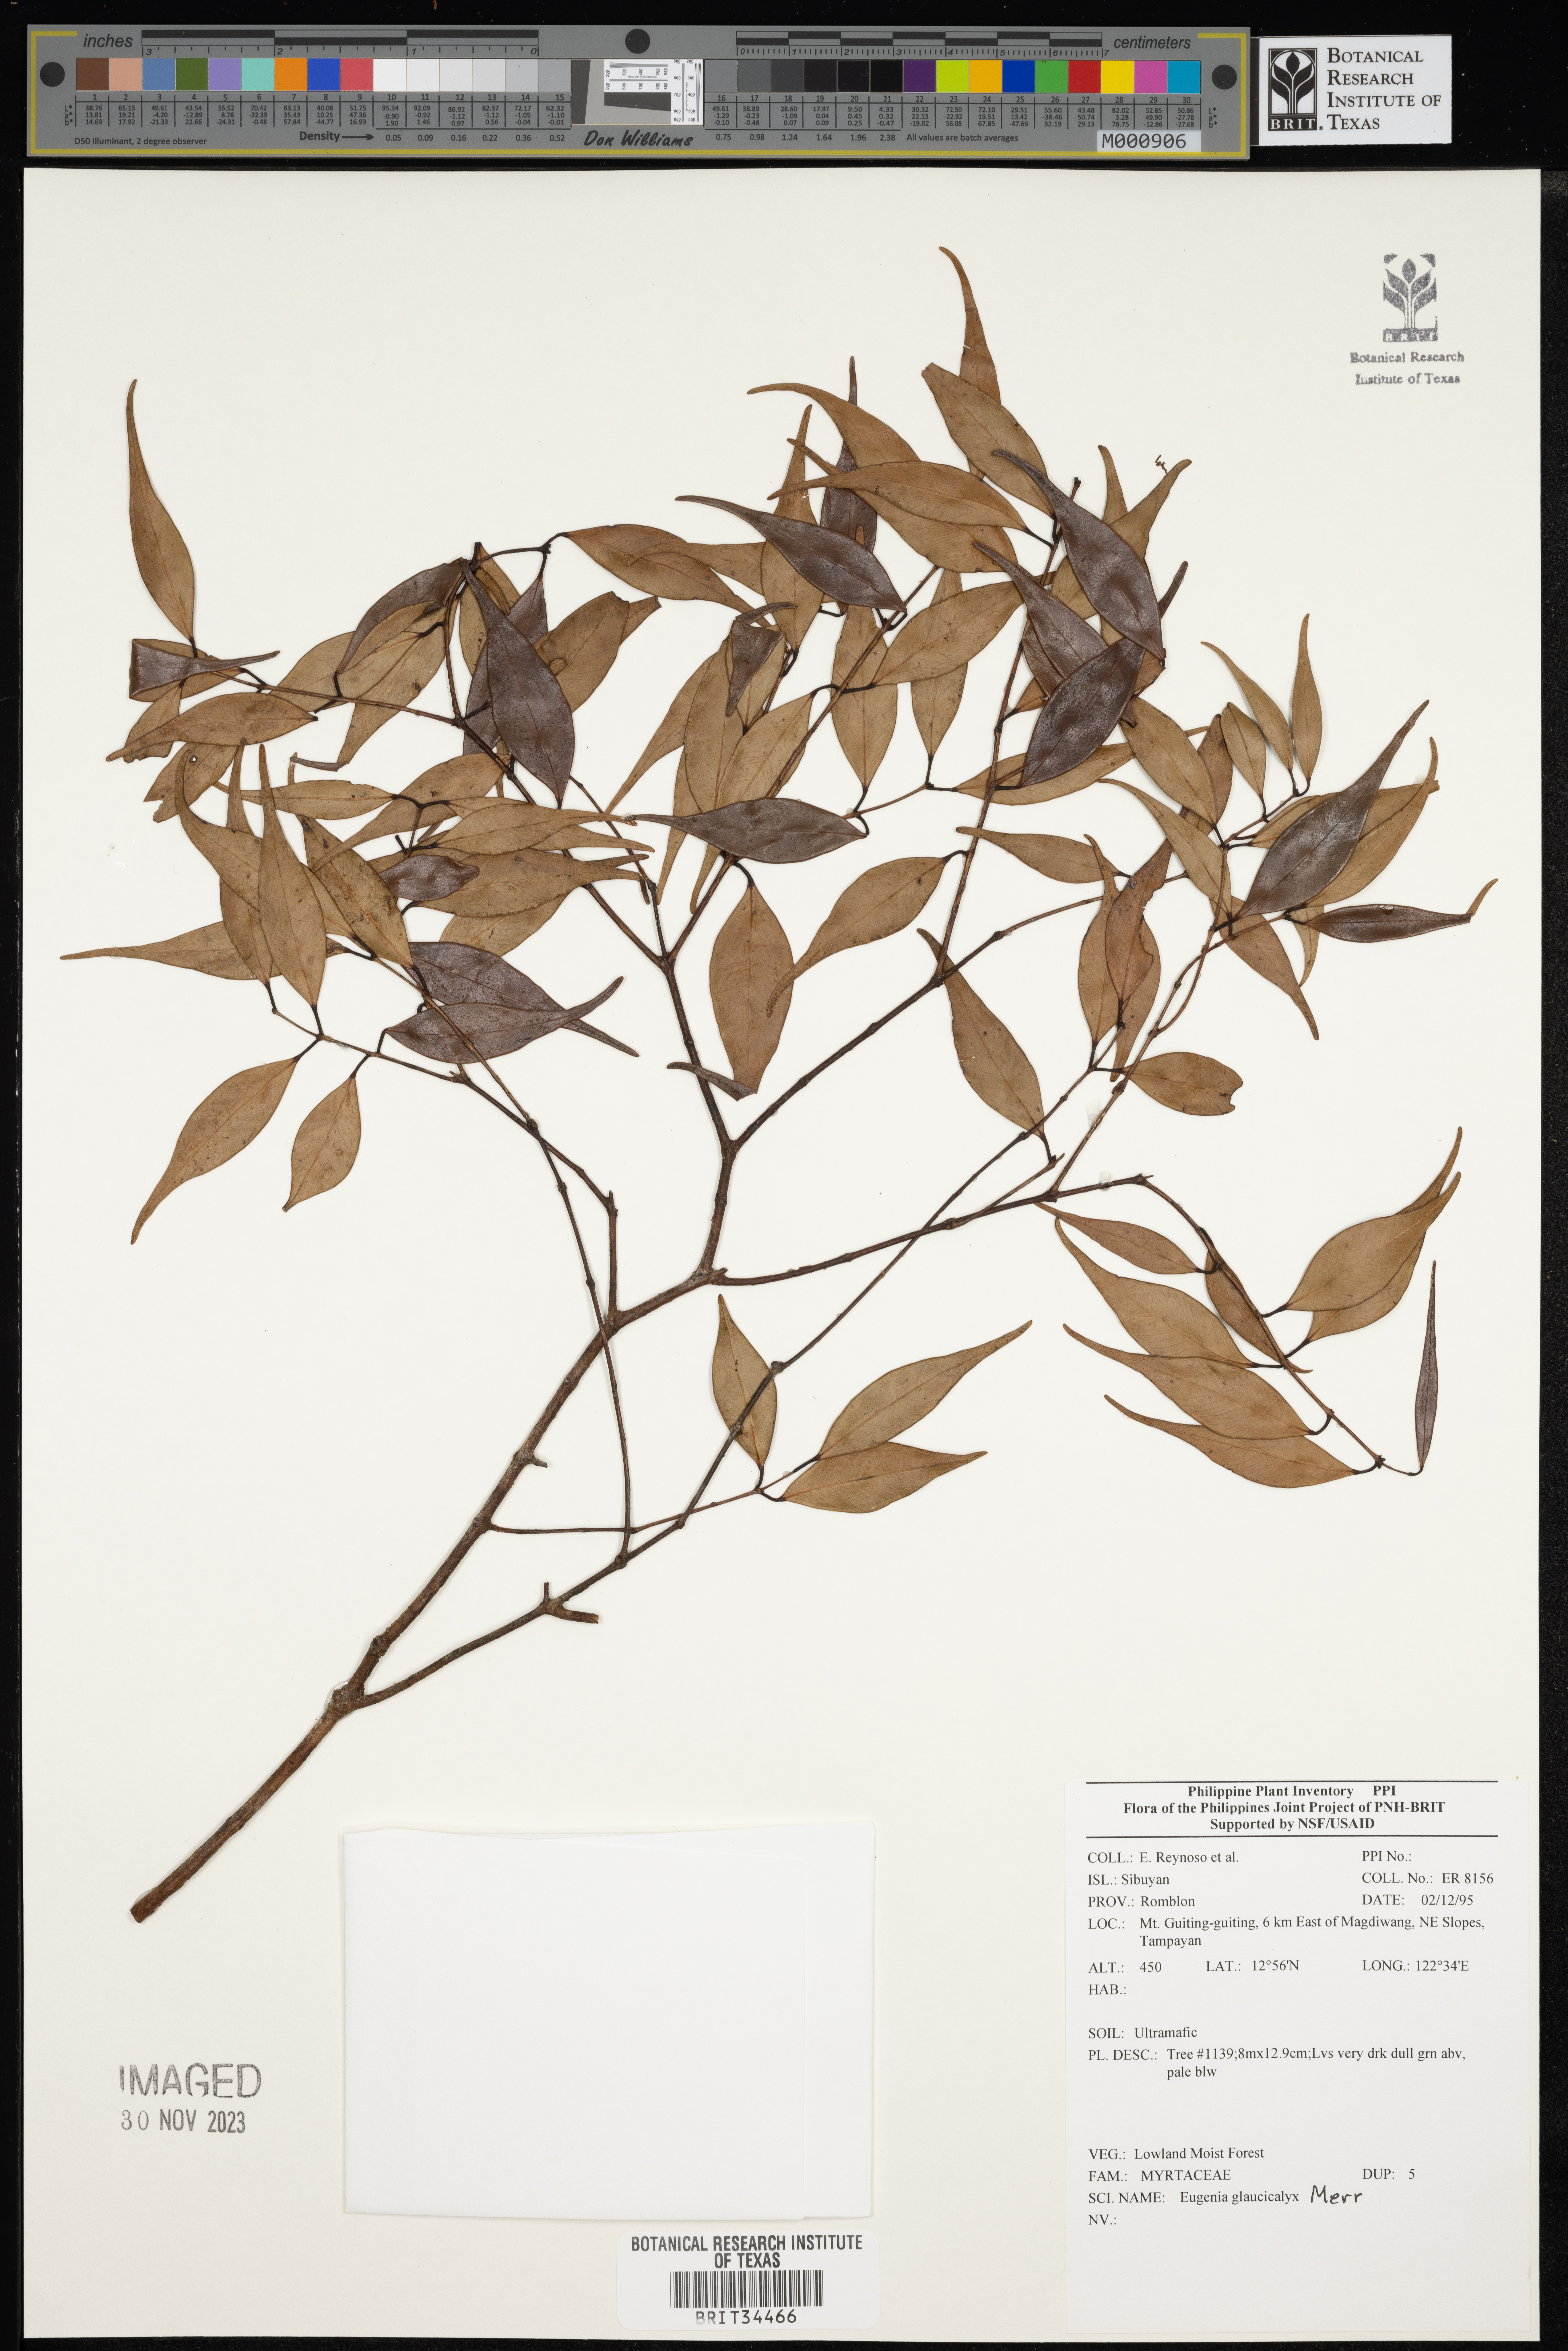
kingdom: Plantae
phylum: Tracheophyta
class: Magnoliopsida
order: Myrtales
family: Myrtaceae
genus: Eugenia
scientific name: Eugenia
